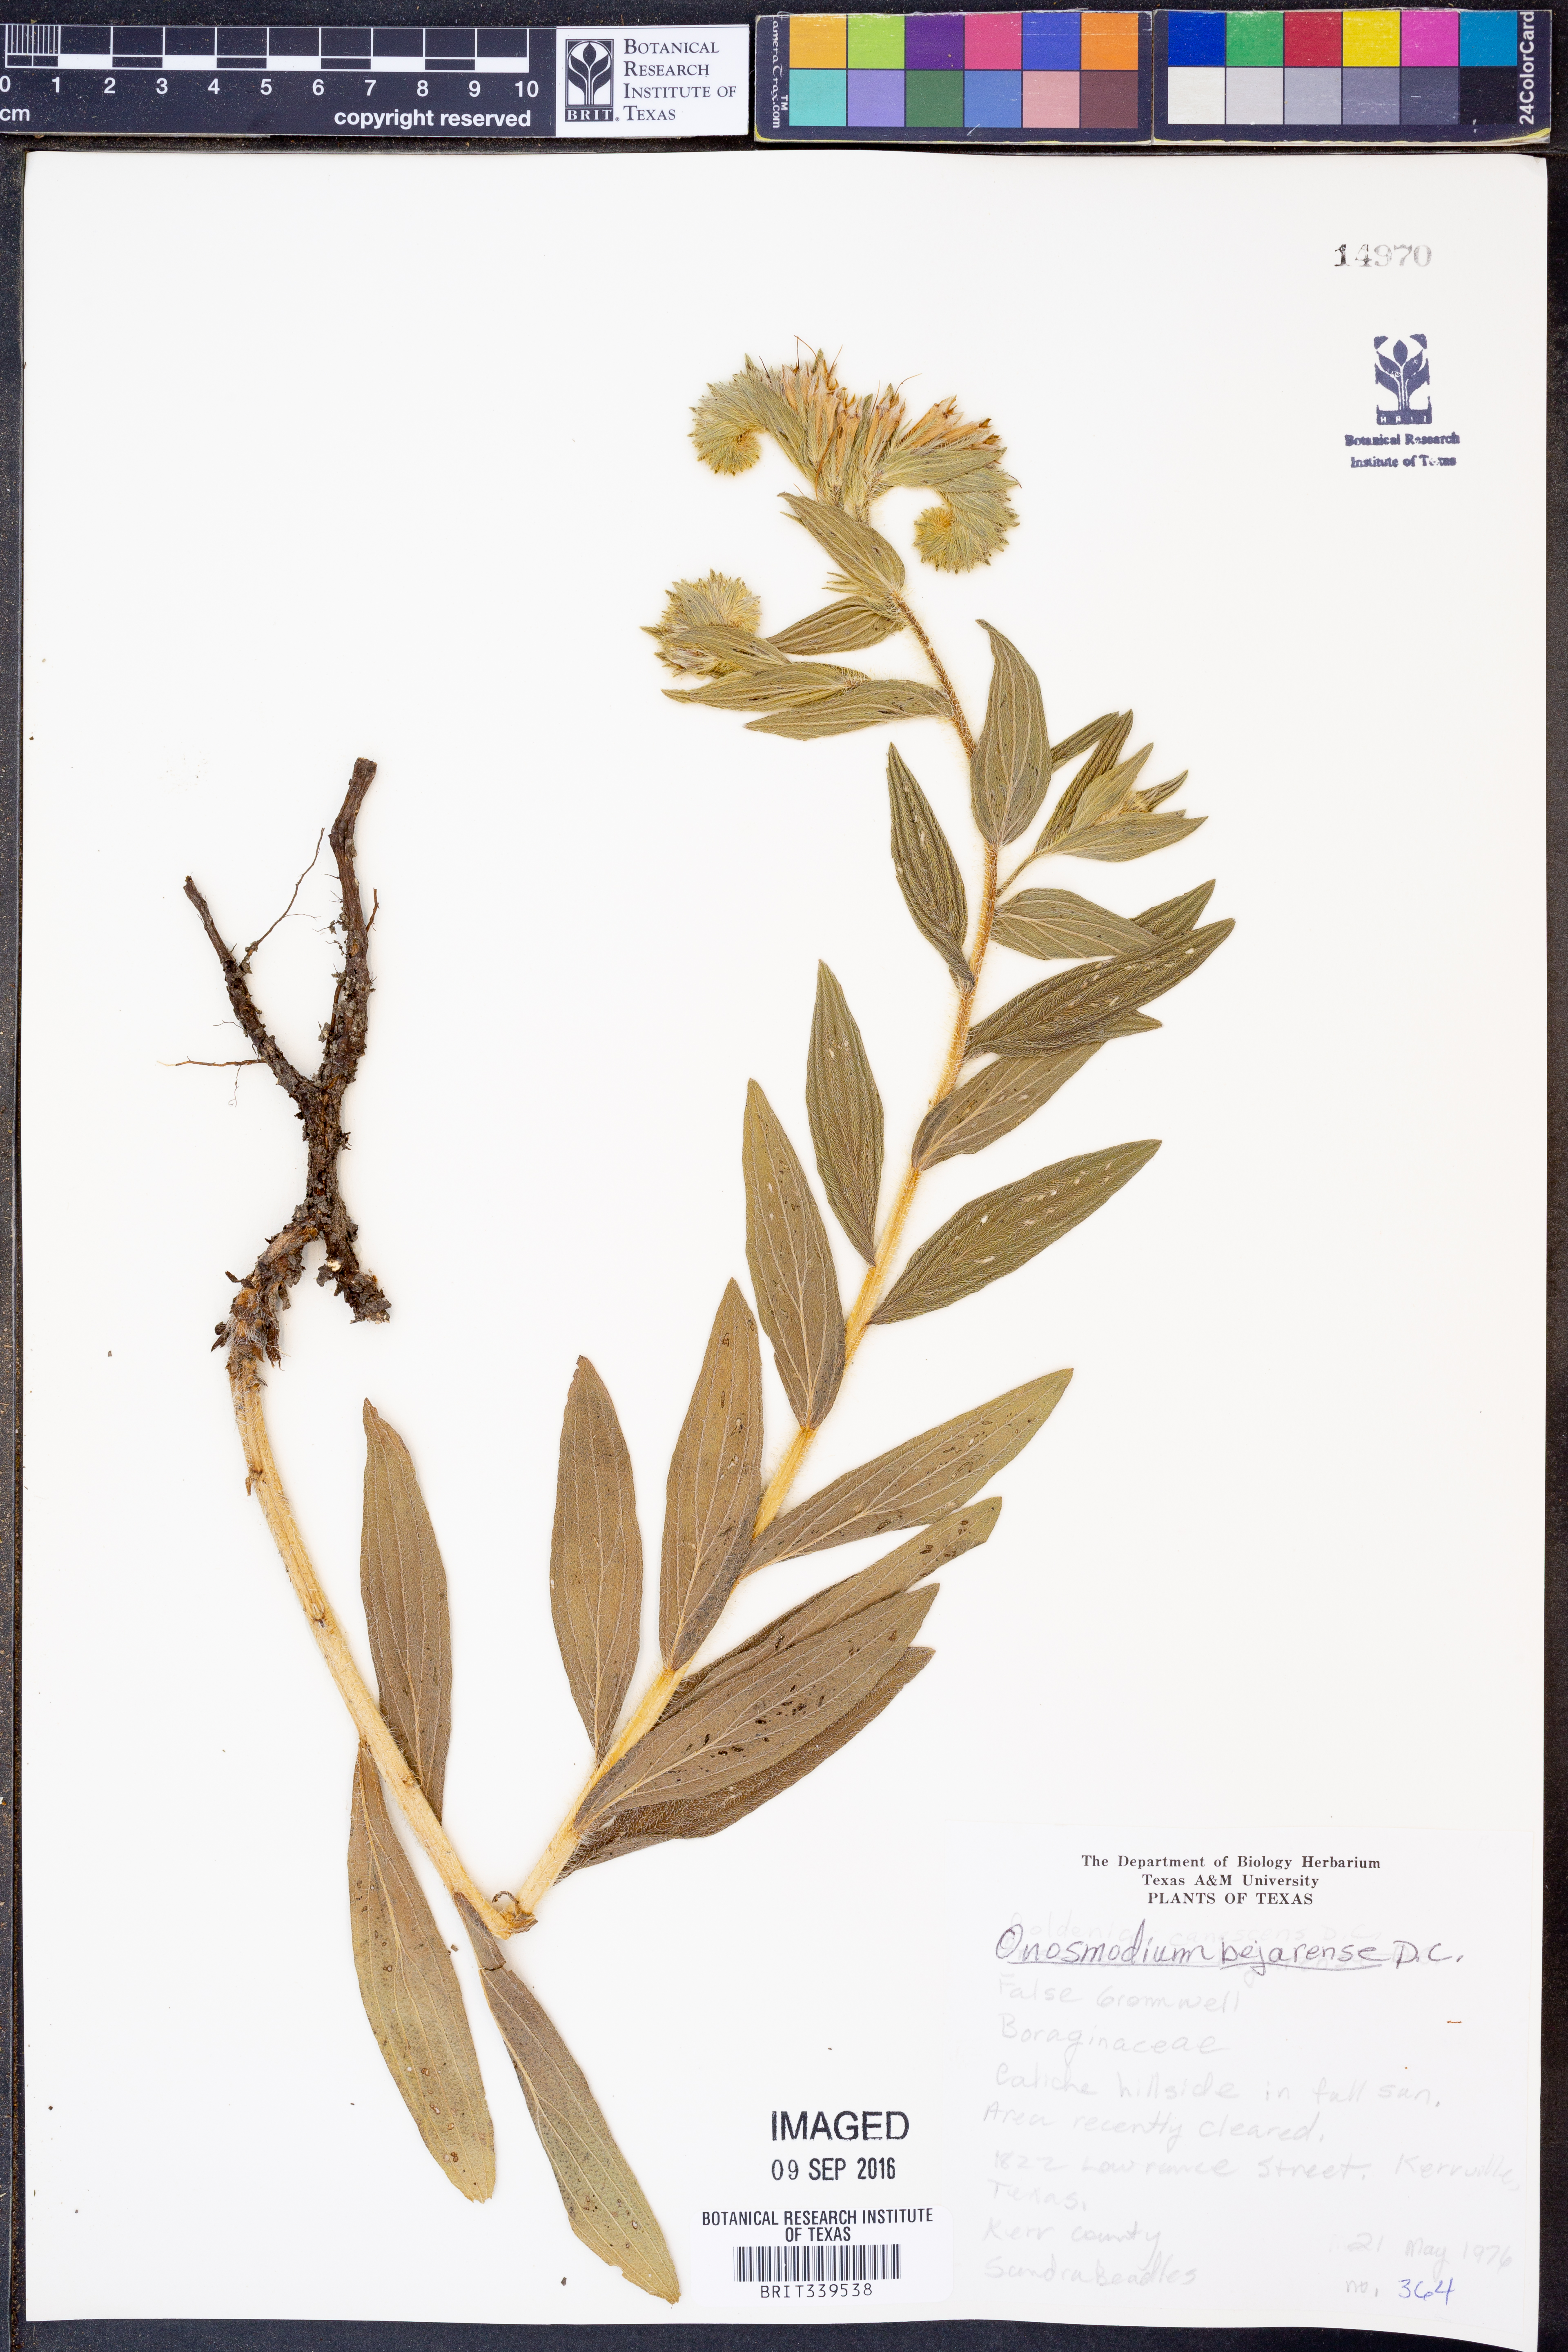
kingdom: Plantae
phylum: Tracheophyta
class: Magnoliopsida
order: Boraginales
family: Boraginaceae
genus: Lithospermum
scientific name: Lithospermum molle
